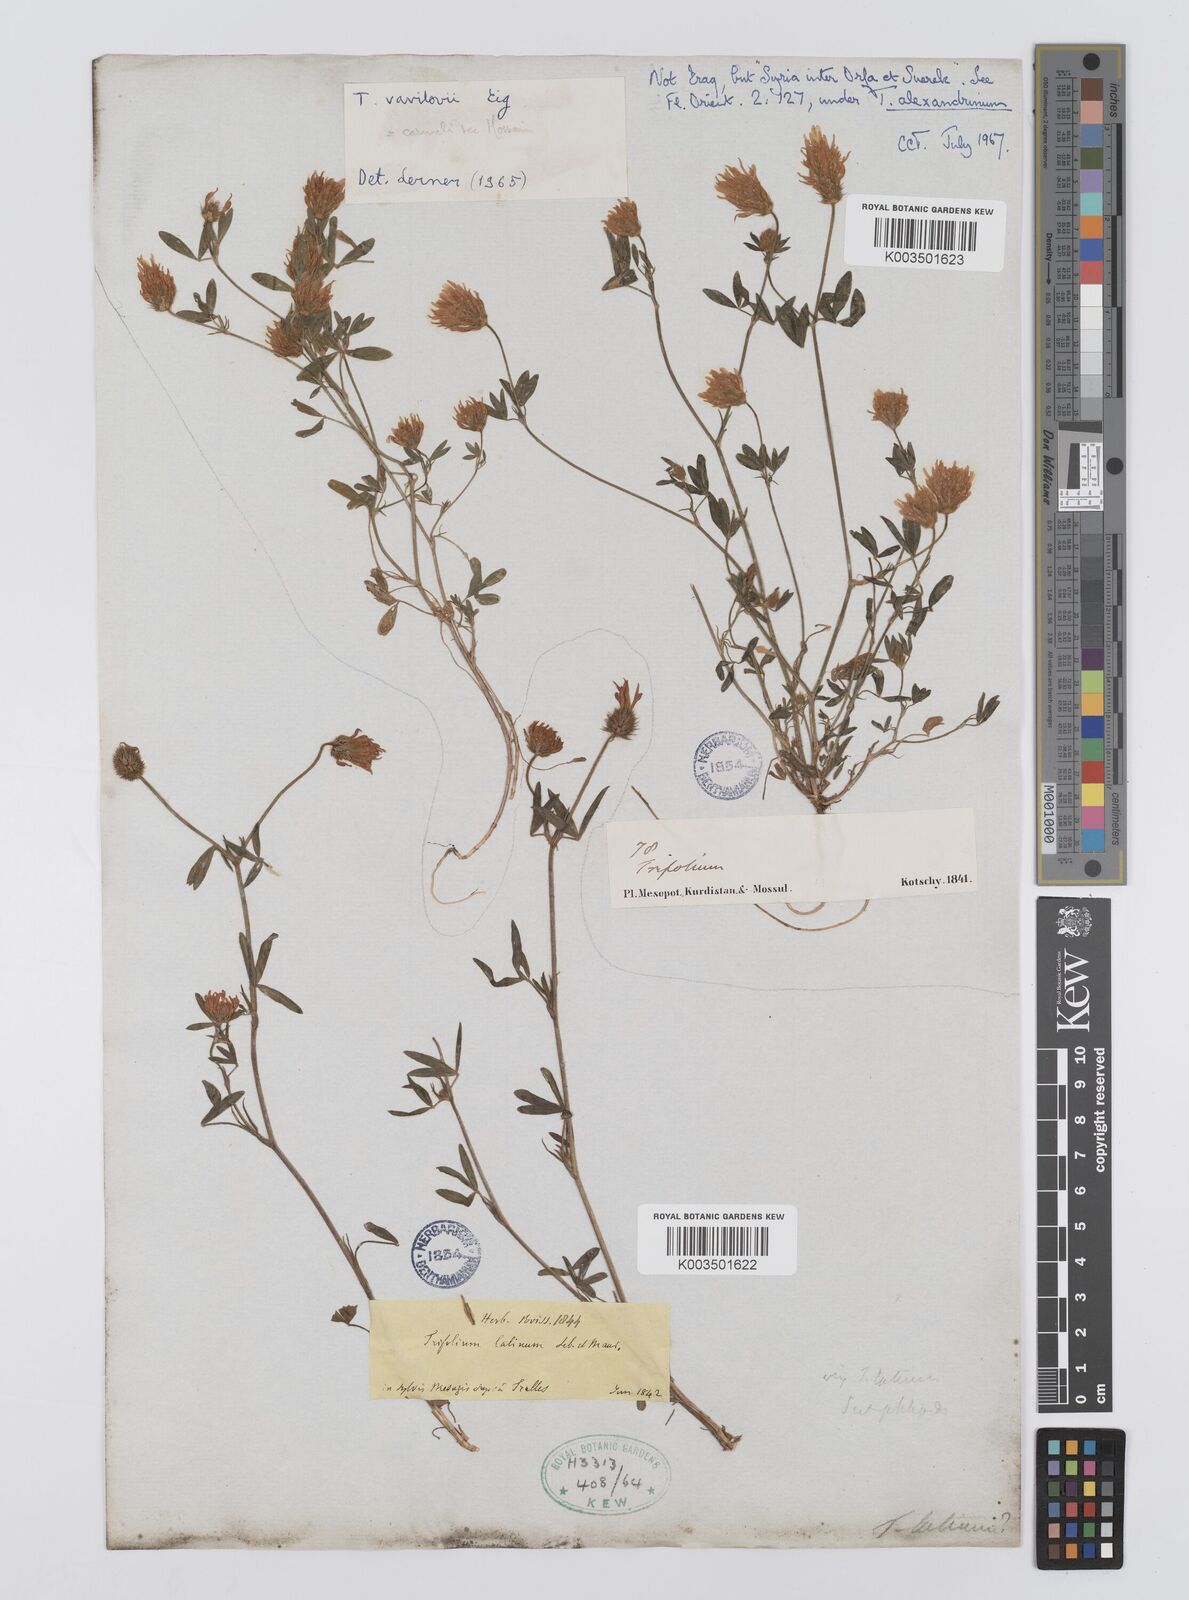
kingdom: Plantae
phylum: Tracheophyta
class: Magnoliopsida
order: Fabales
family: Fabaceae
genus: Trifolium
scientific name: Trifolium vavilovii
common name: Vavilov's clover
